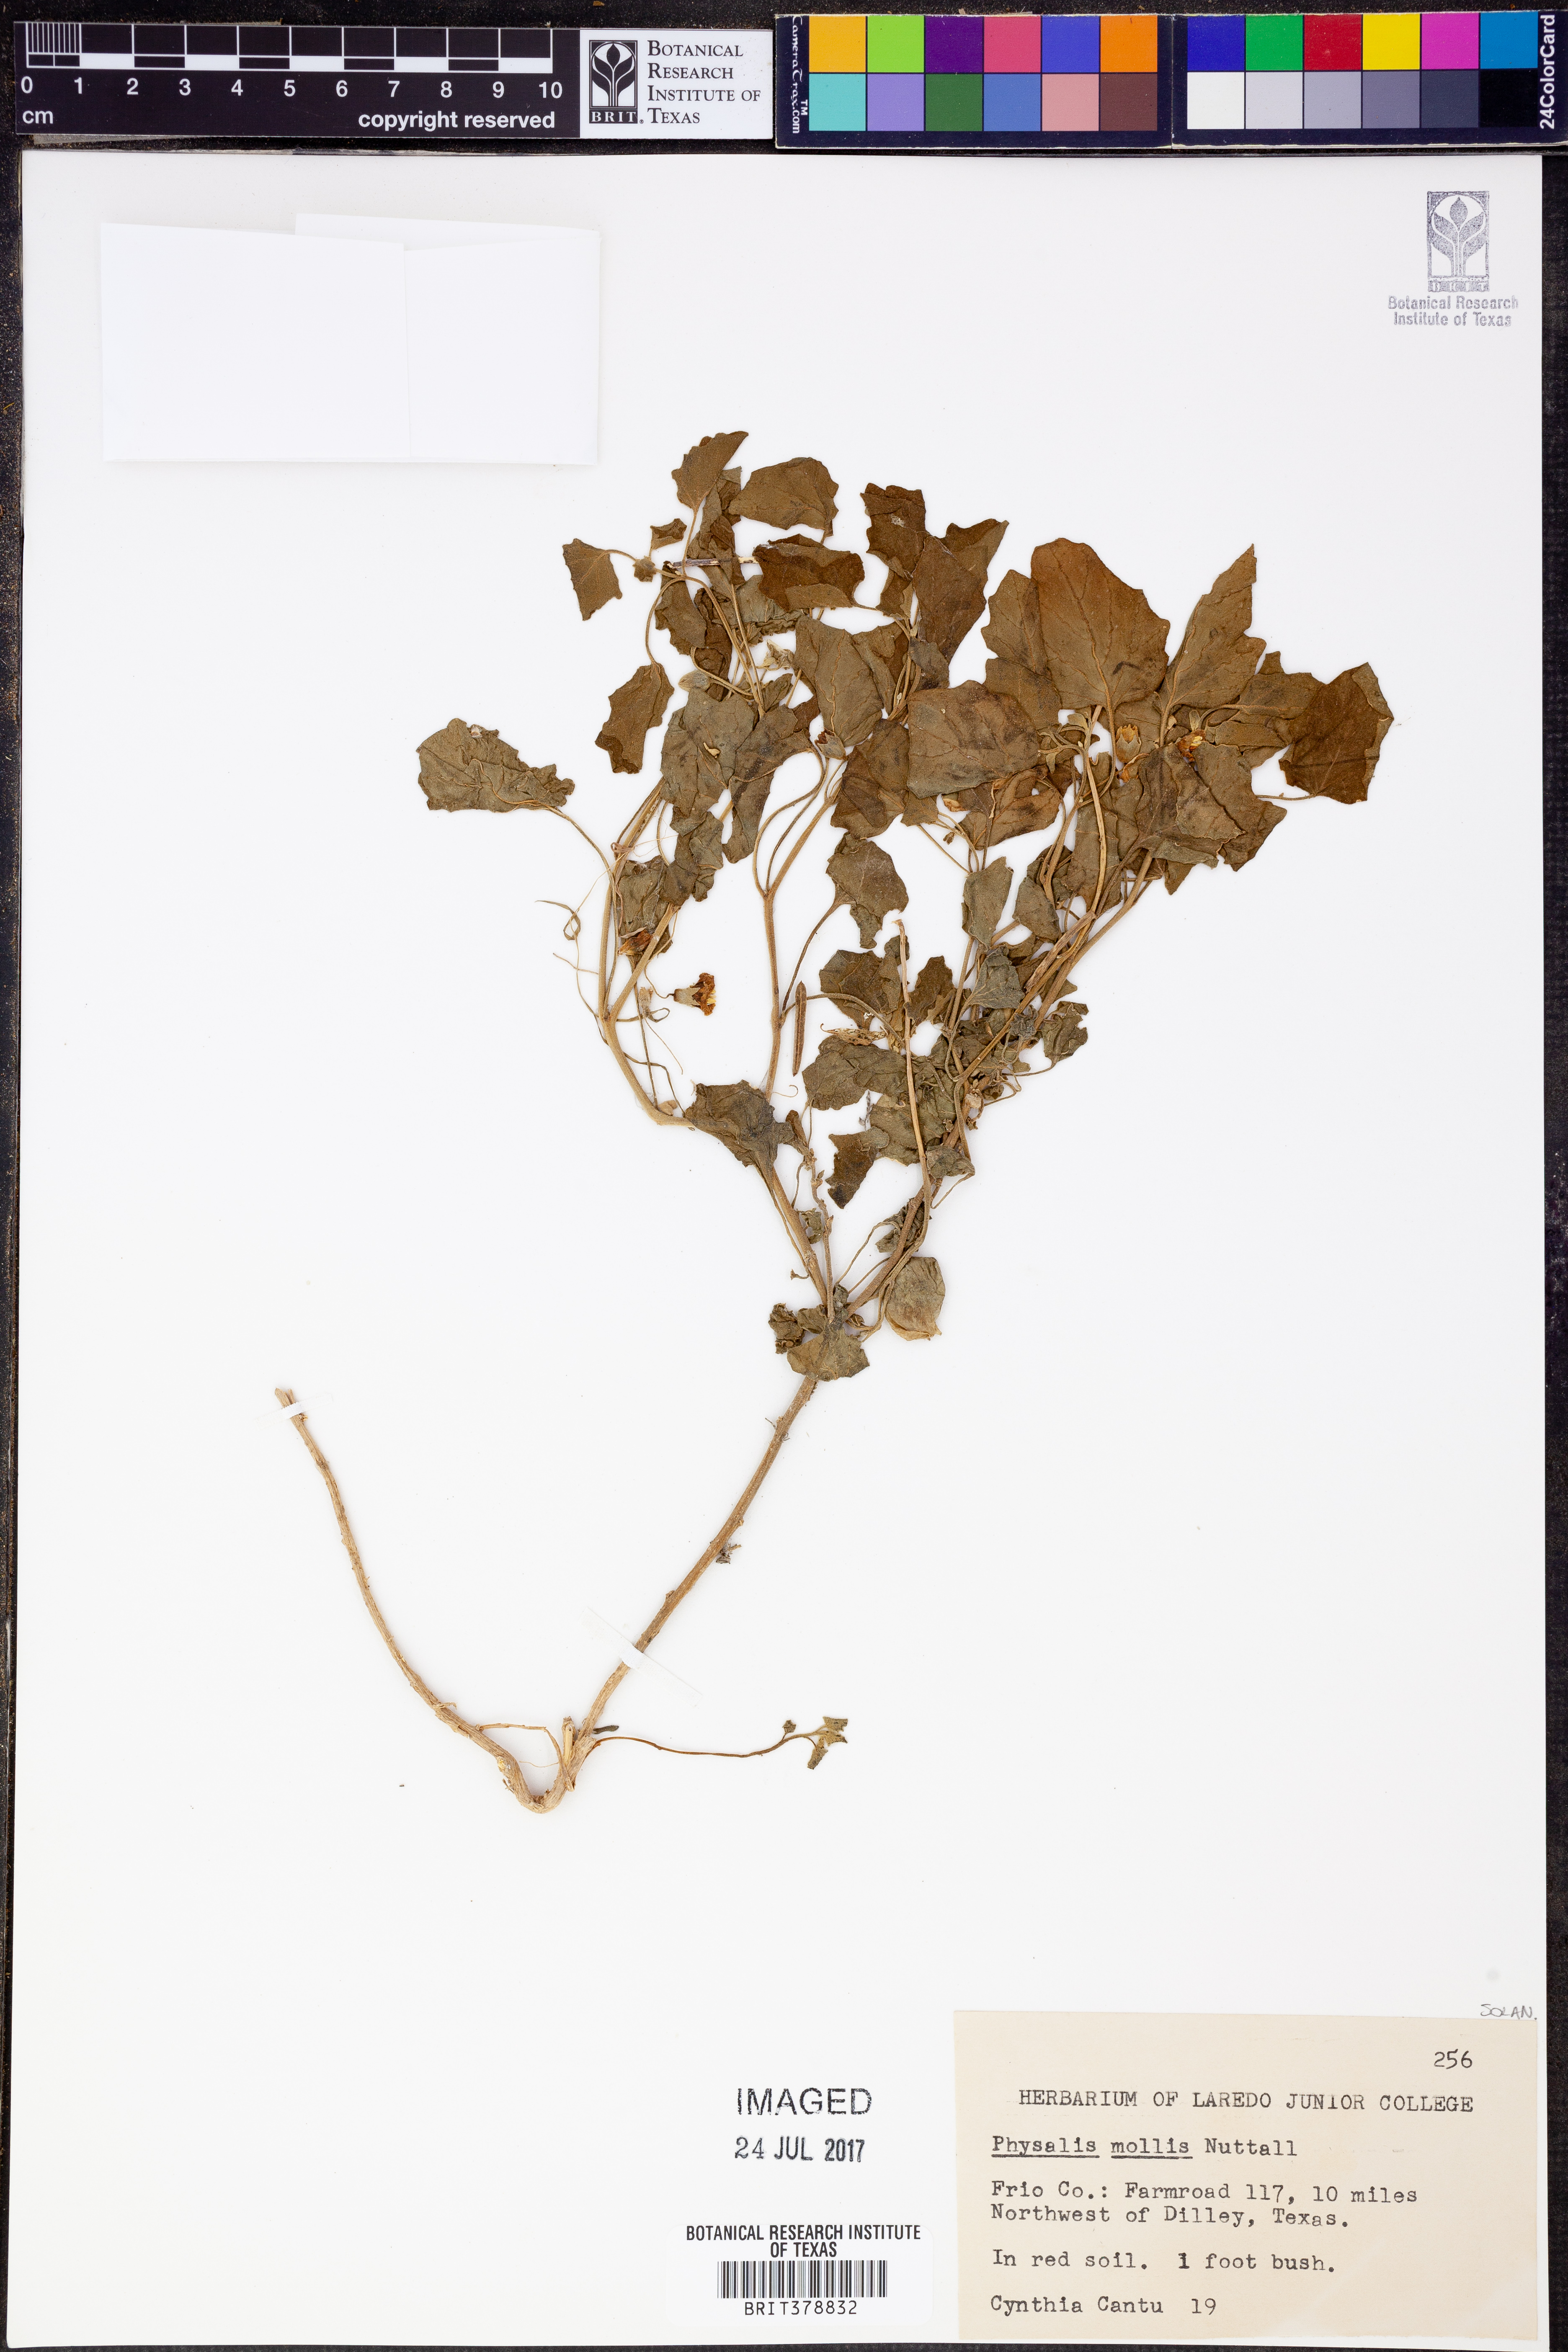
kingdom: Plantae
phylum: Tracheophyta
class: Magnoliopsida
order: Solanales
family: Solanaceae
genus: Physalis
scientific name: Physalis mollis
